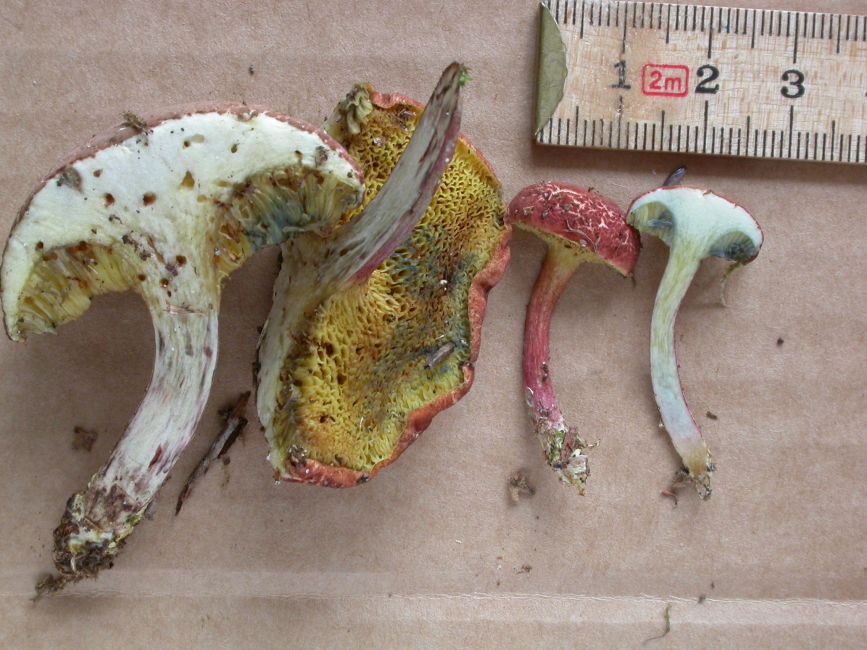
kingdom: Fungi
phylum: Basidiomycota
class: Agaricomycetes
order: Boletales
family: Boletaceae
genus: Xerocomellus
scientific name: Xerocomellus fennicus
